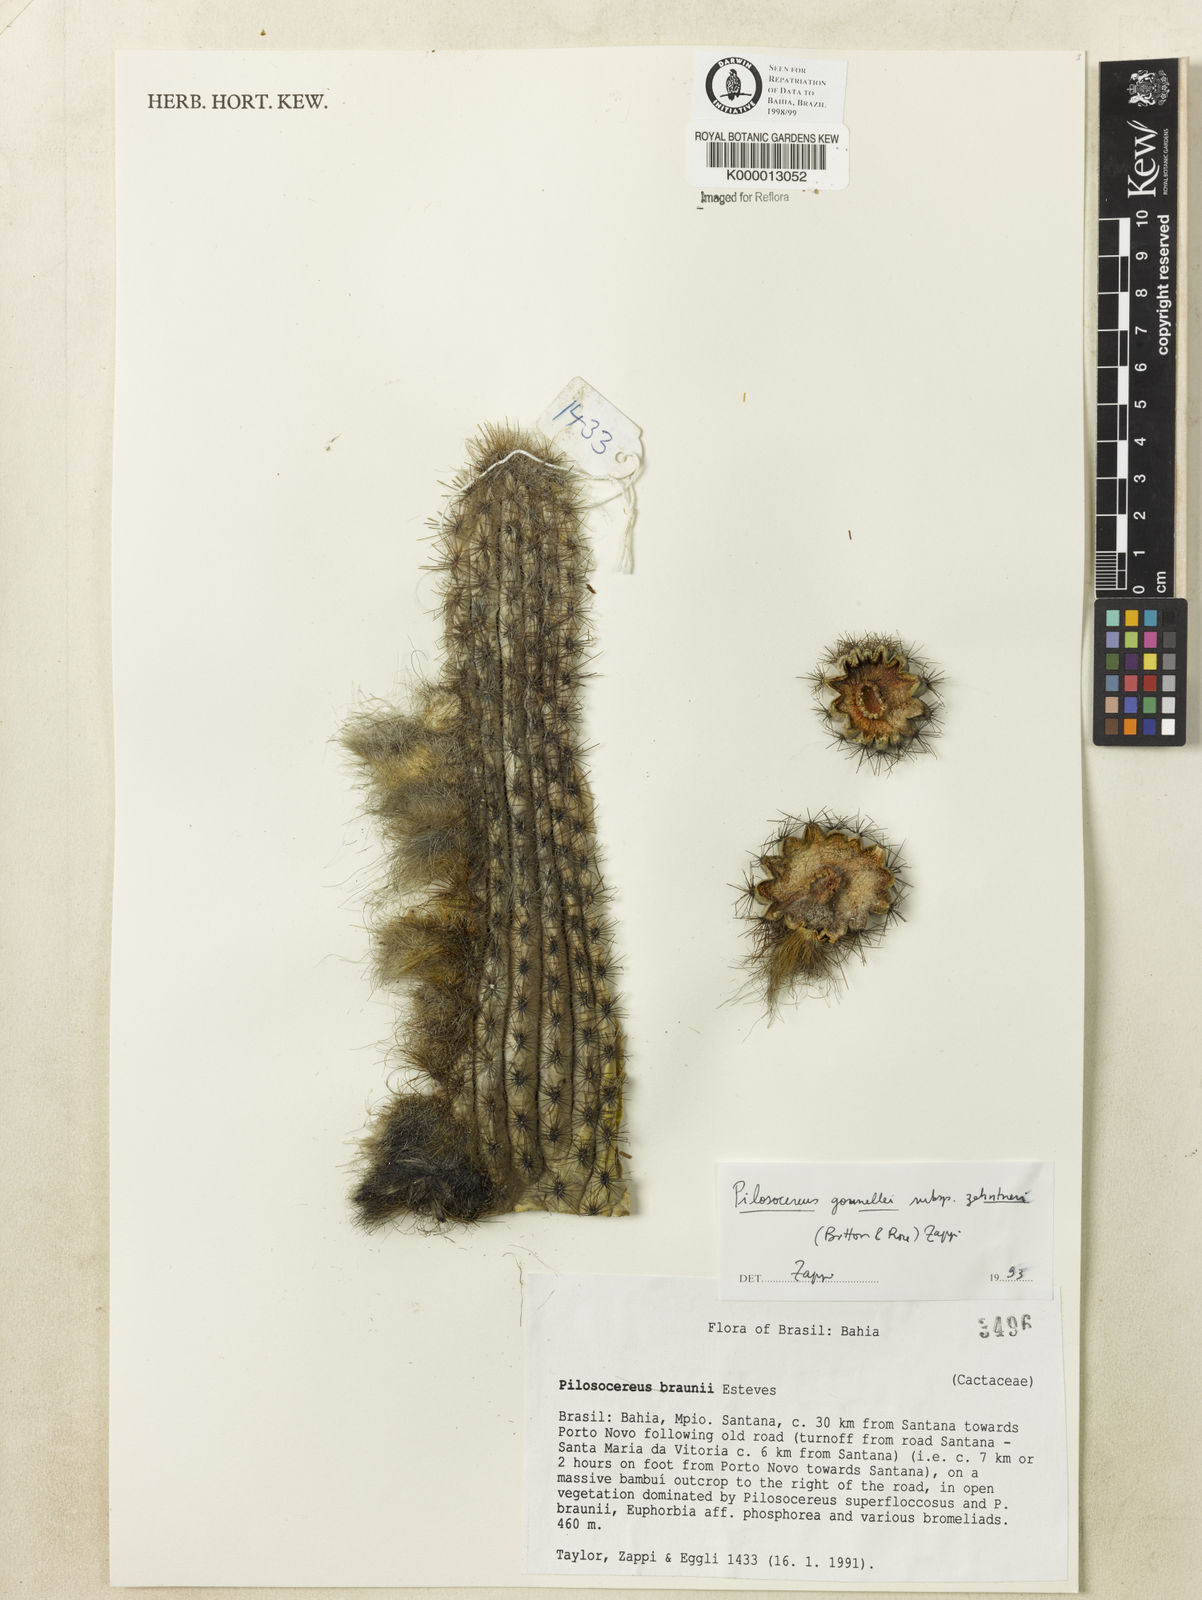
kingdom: Plantae
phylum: Tracheophyta
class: Magnoliopsida
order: Caryophyllales
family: Cactaceae
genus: Xiquexique
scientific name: Xiquexique gounellei
